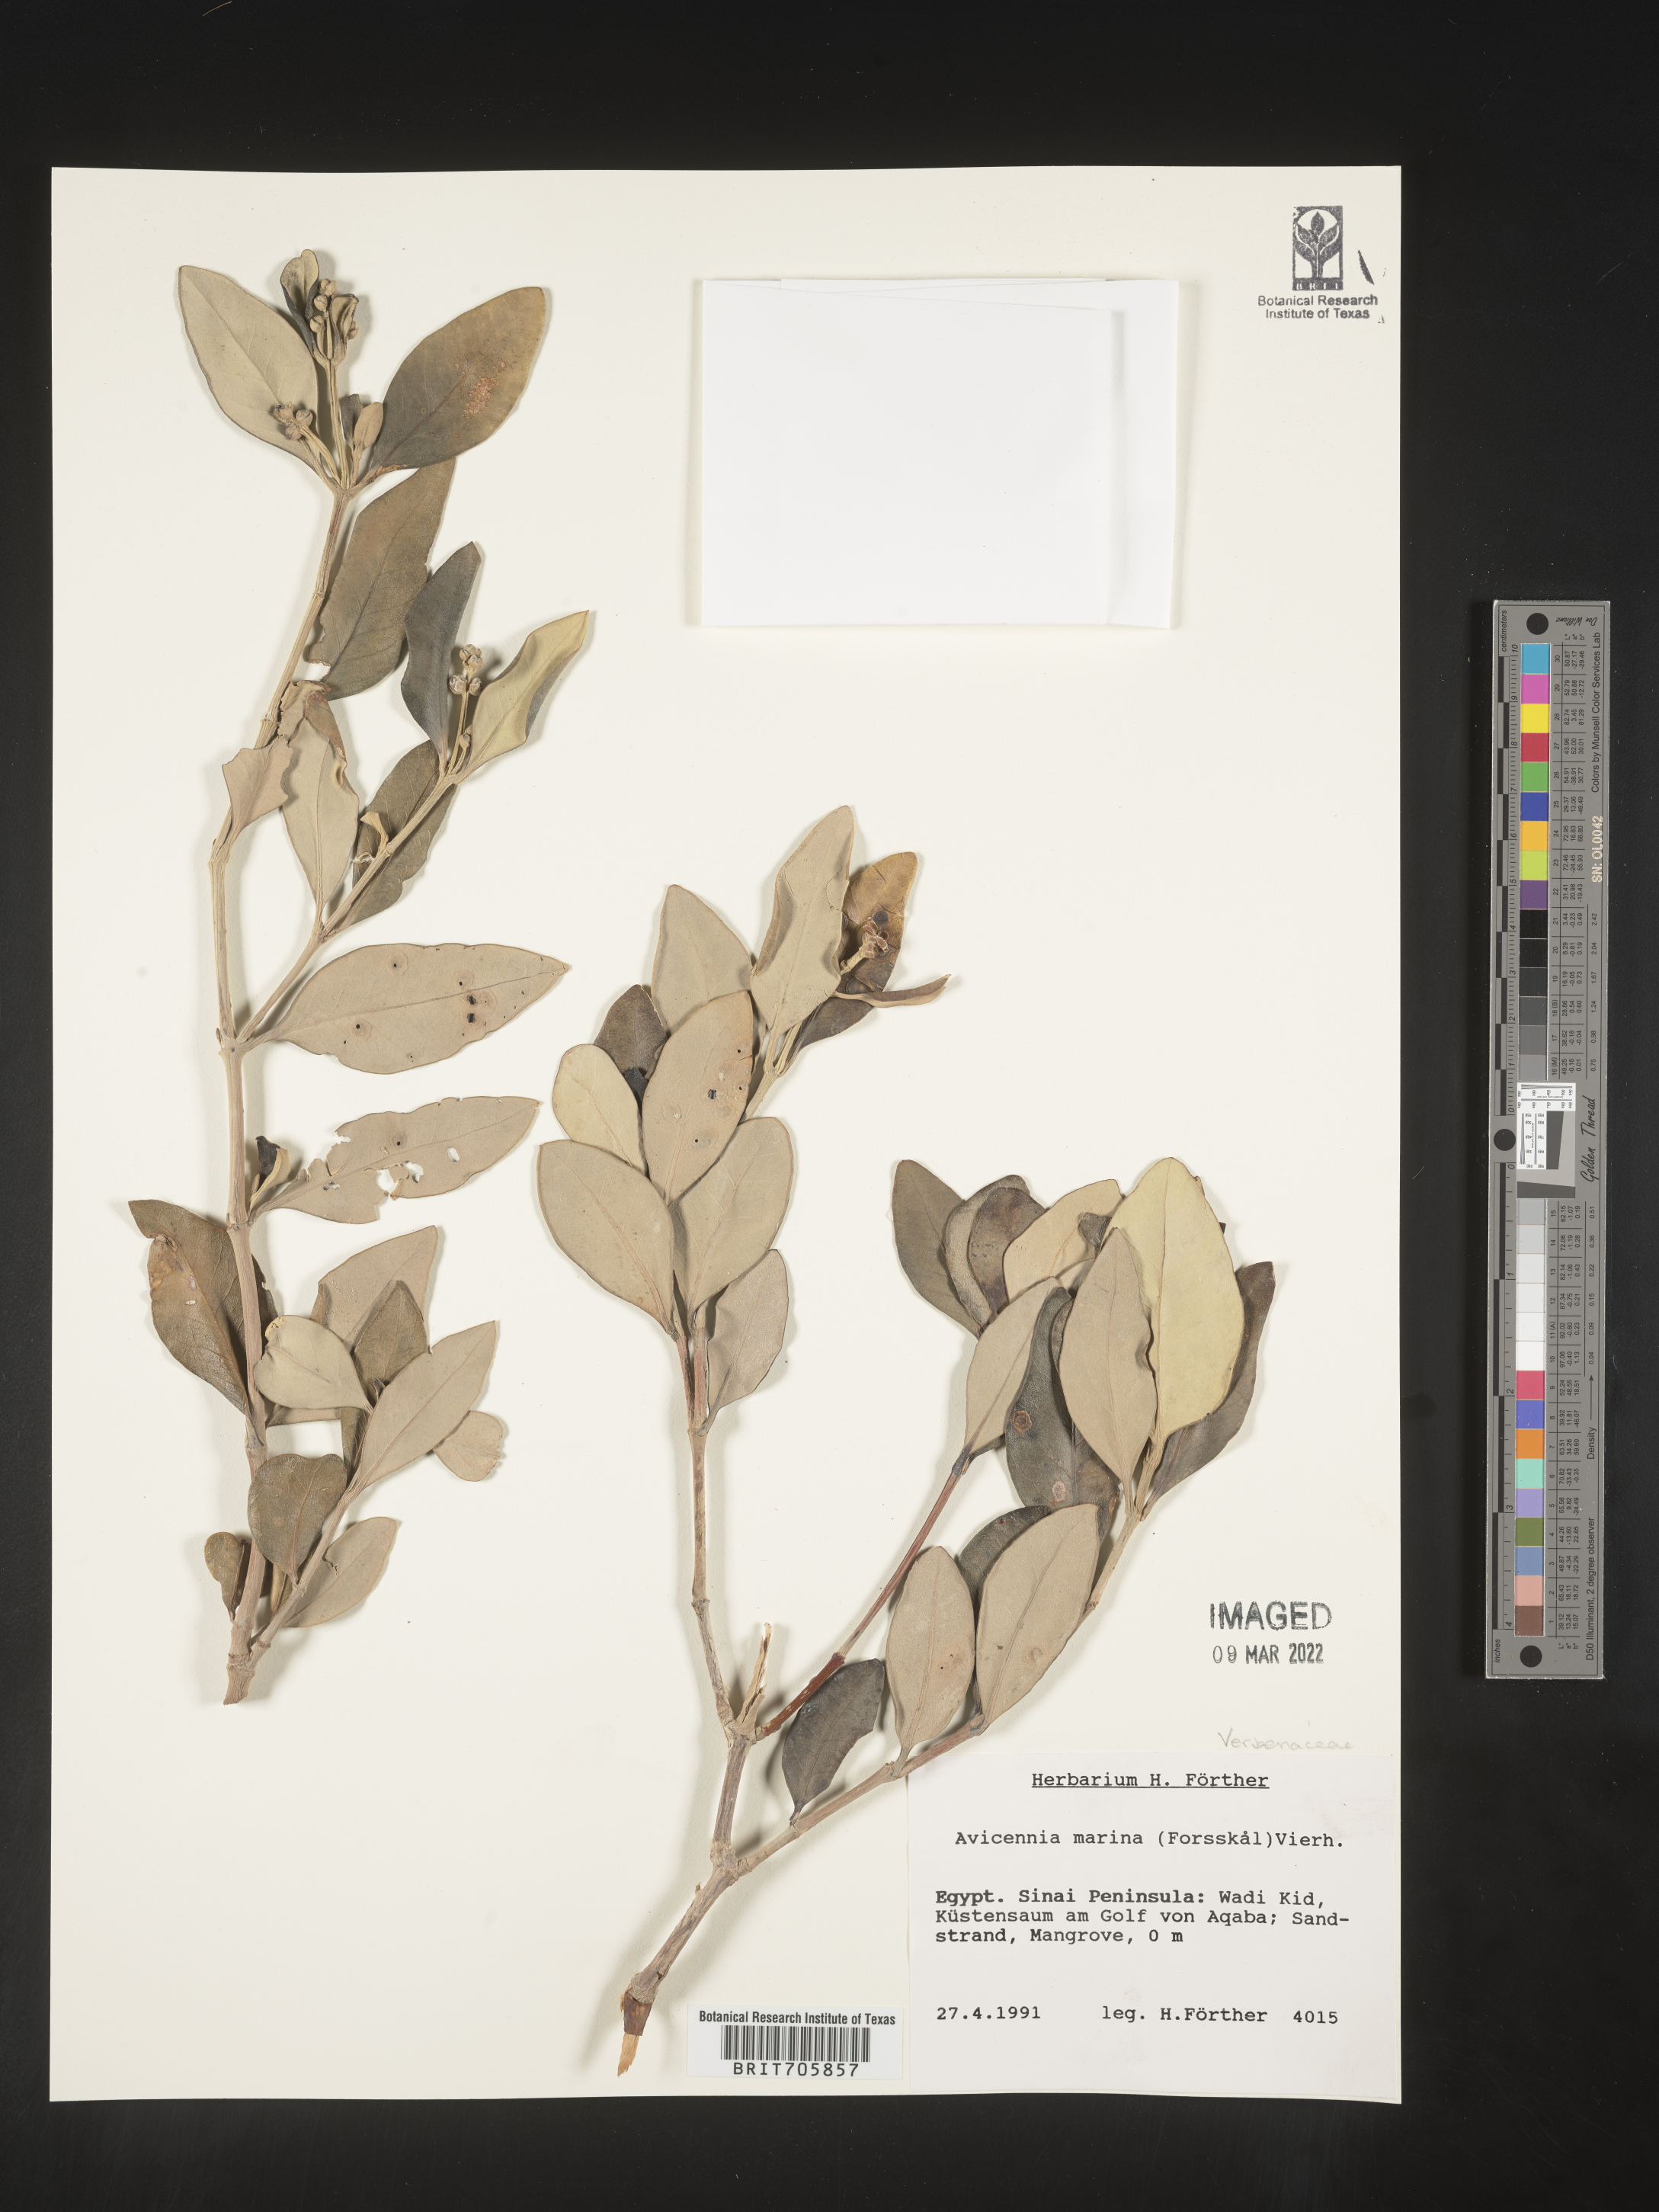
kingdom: Plantae
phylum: Tracheophyta
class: Magnoliopsida
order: Lamiales
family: Acanthaceae
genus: Avicennia
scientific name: Avicennia
